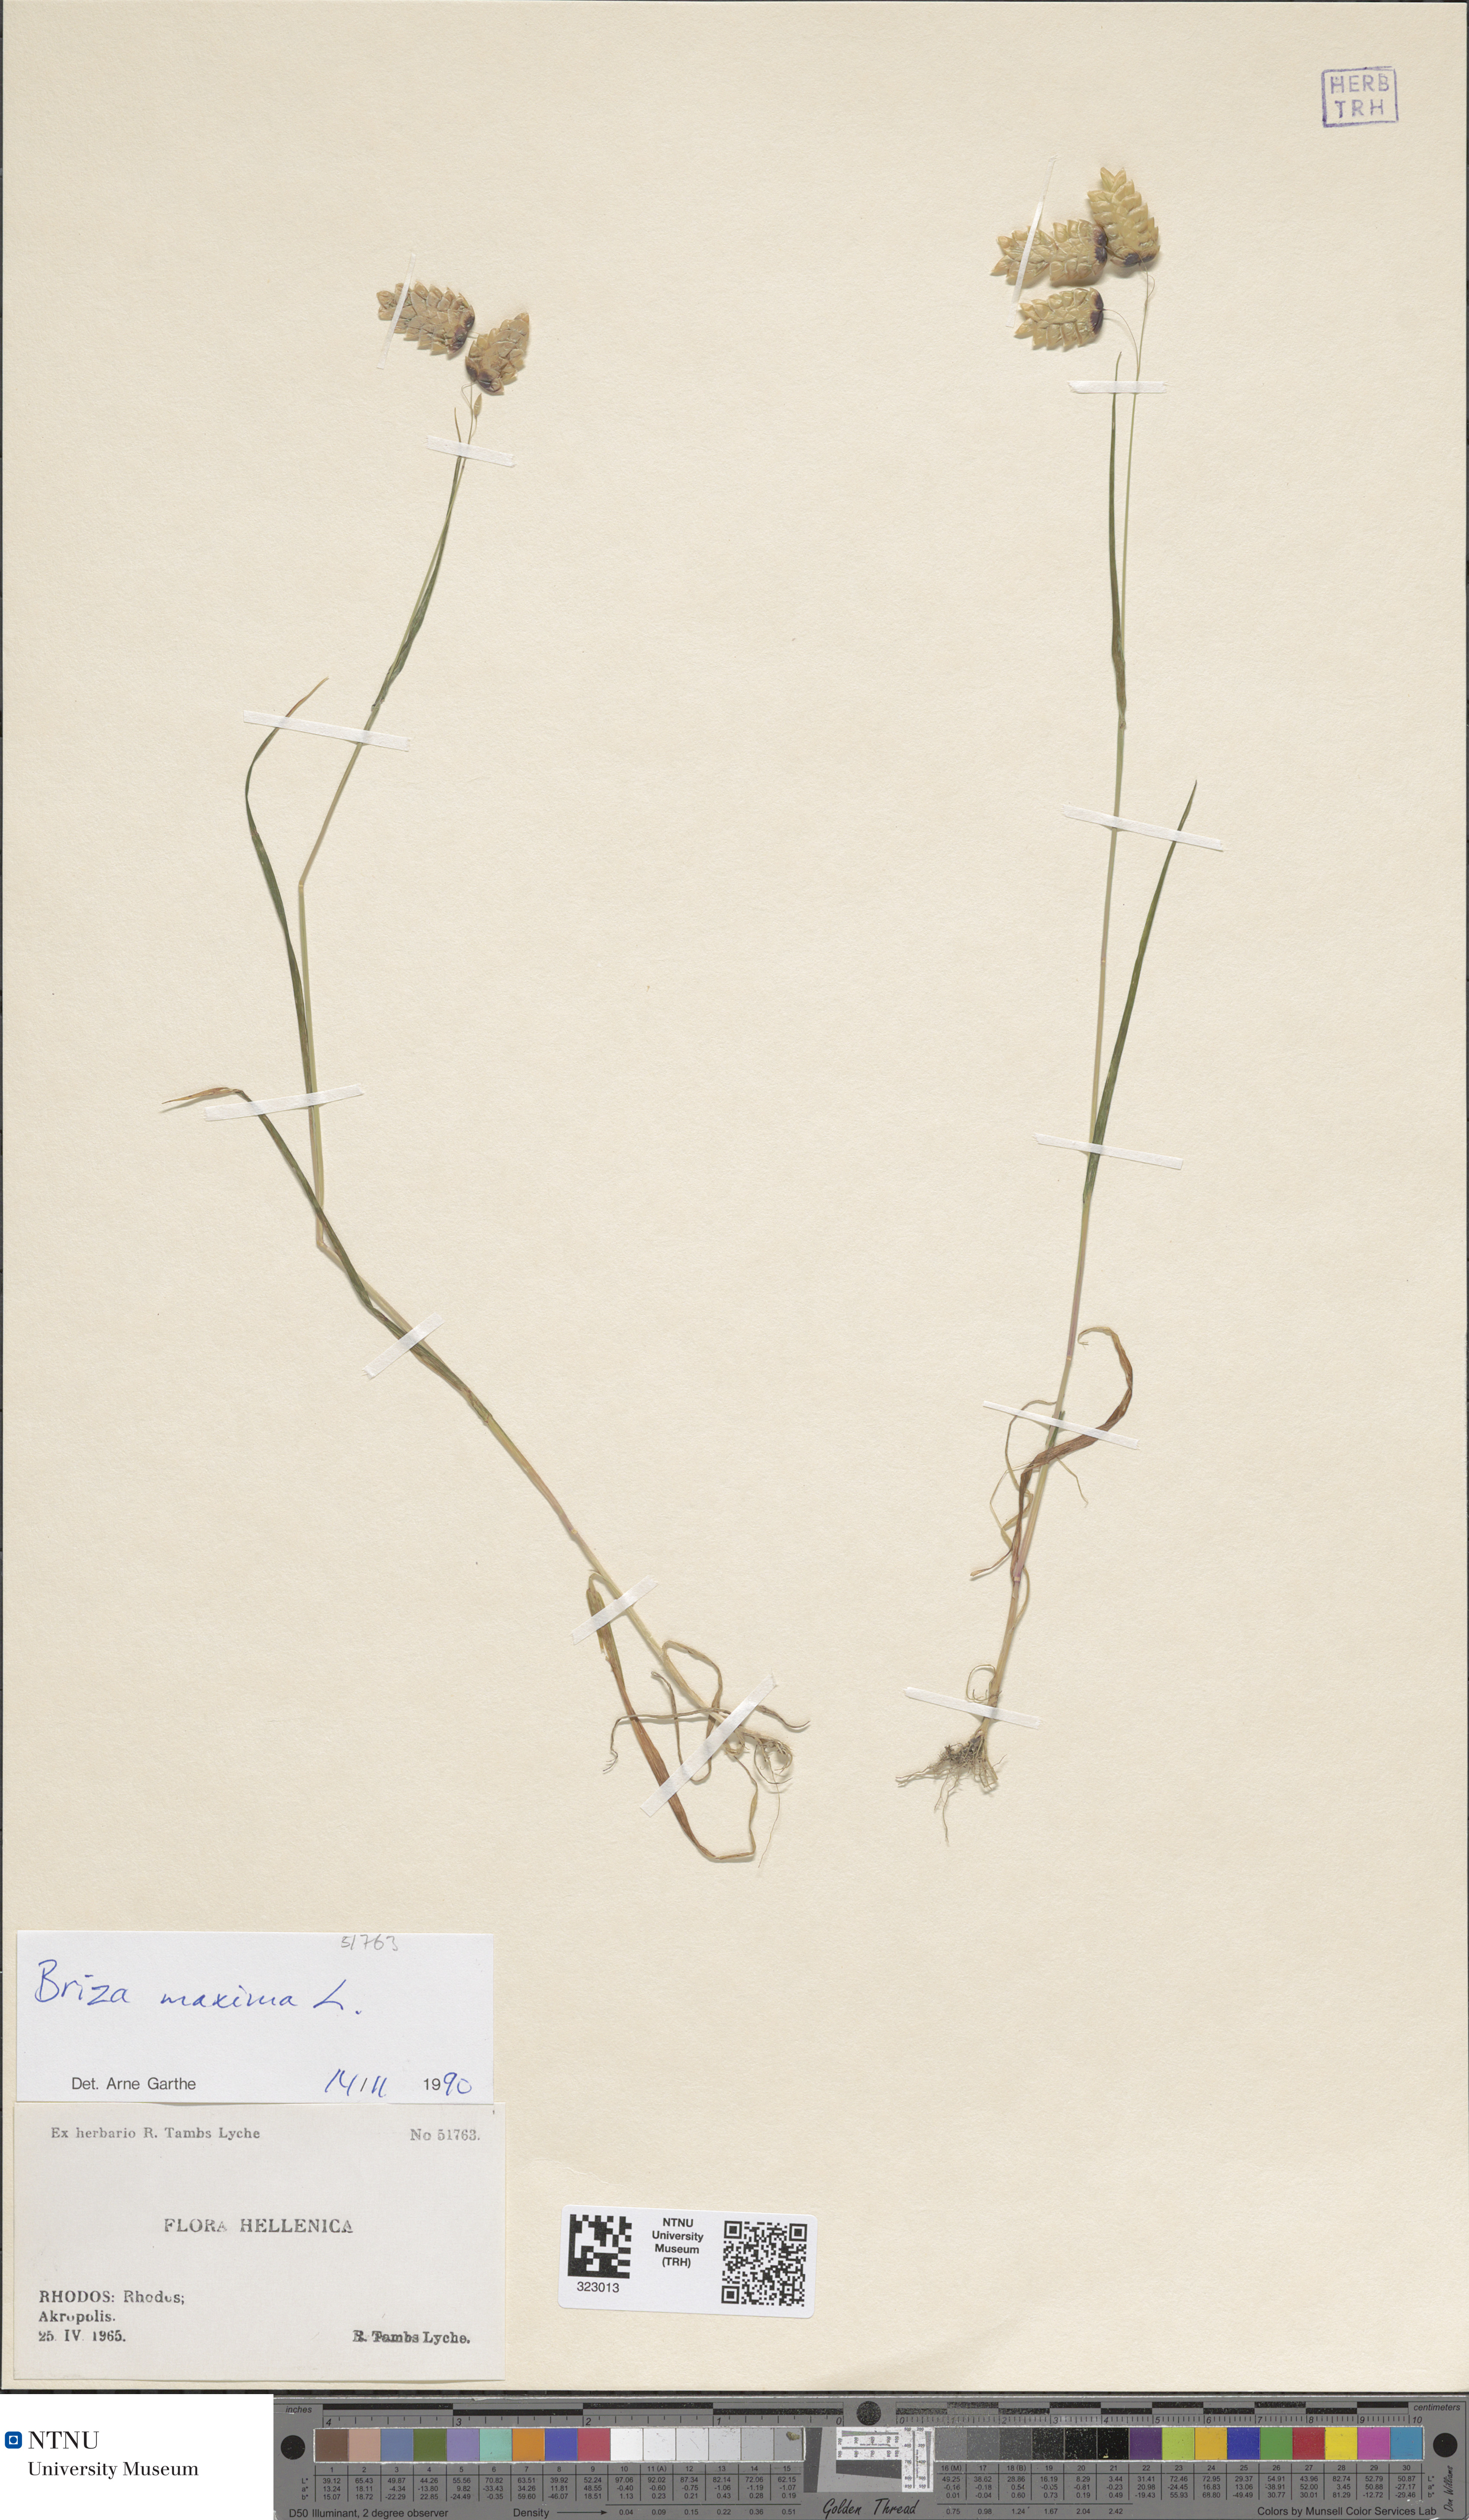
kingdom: Plantae
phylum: Tracheophyta
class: Liliopsida
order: Poales
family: Poaceae
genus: Briza
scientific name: Briza maxima
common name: Big quakinggrass
